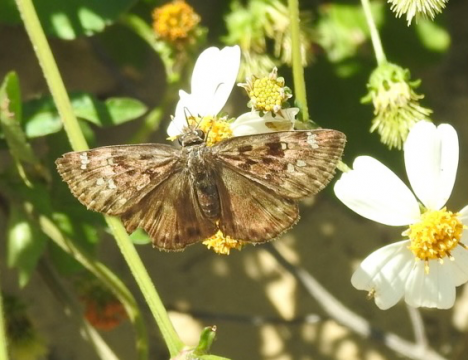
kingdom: Animalia
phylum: Arthropoda
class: Insecta
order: Lepidoptera
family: Hesperiidae
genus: Gesta
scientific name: Gesta
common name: Horace's Duskywing
